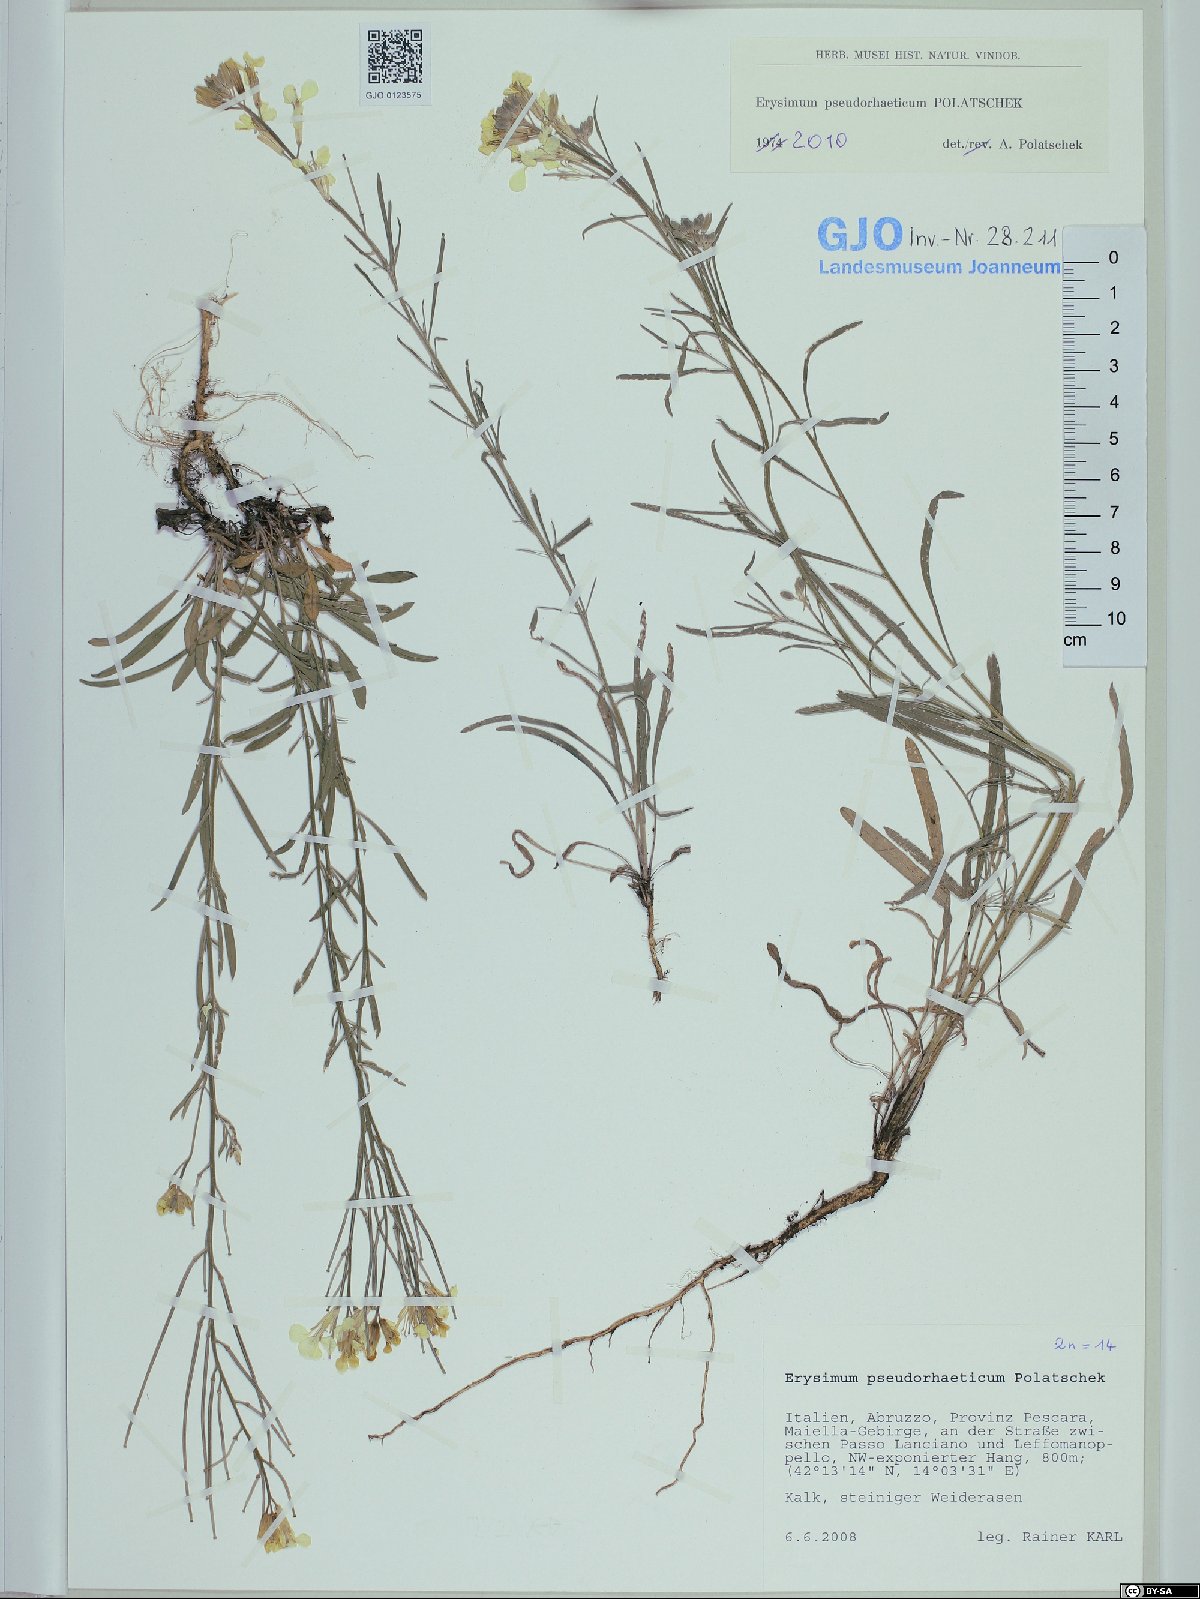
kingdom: Plantae
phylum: Tracheophyta
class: Magnoliopsida
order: Brassicales
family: Brassicaceae
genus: Erysimum
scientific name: Erysimum pseudorhaeticum
